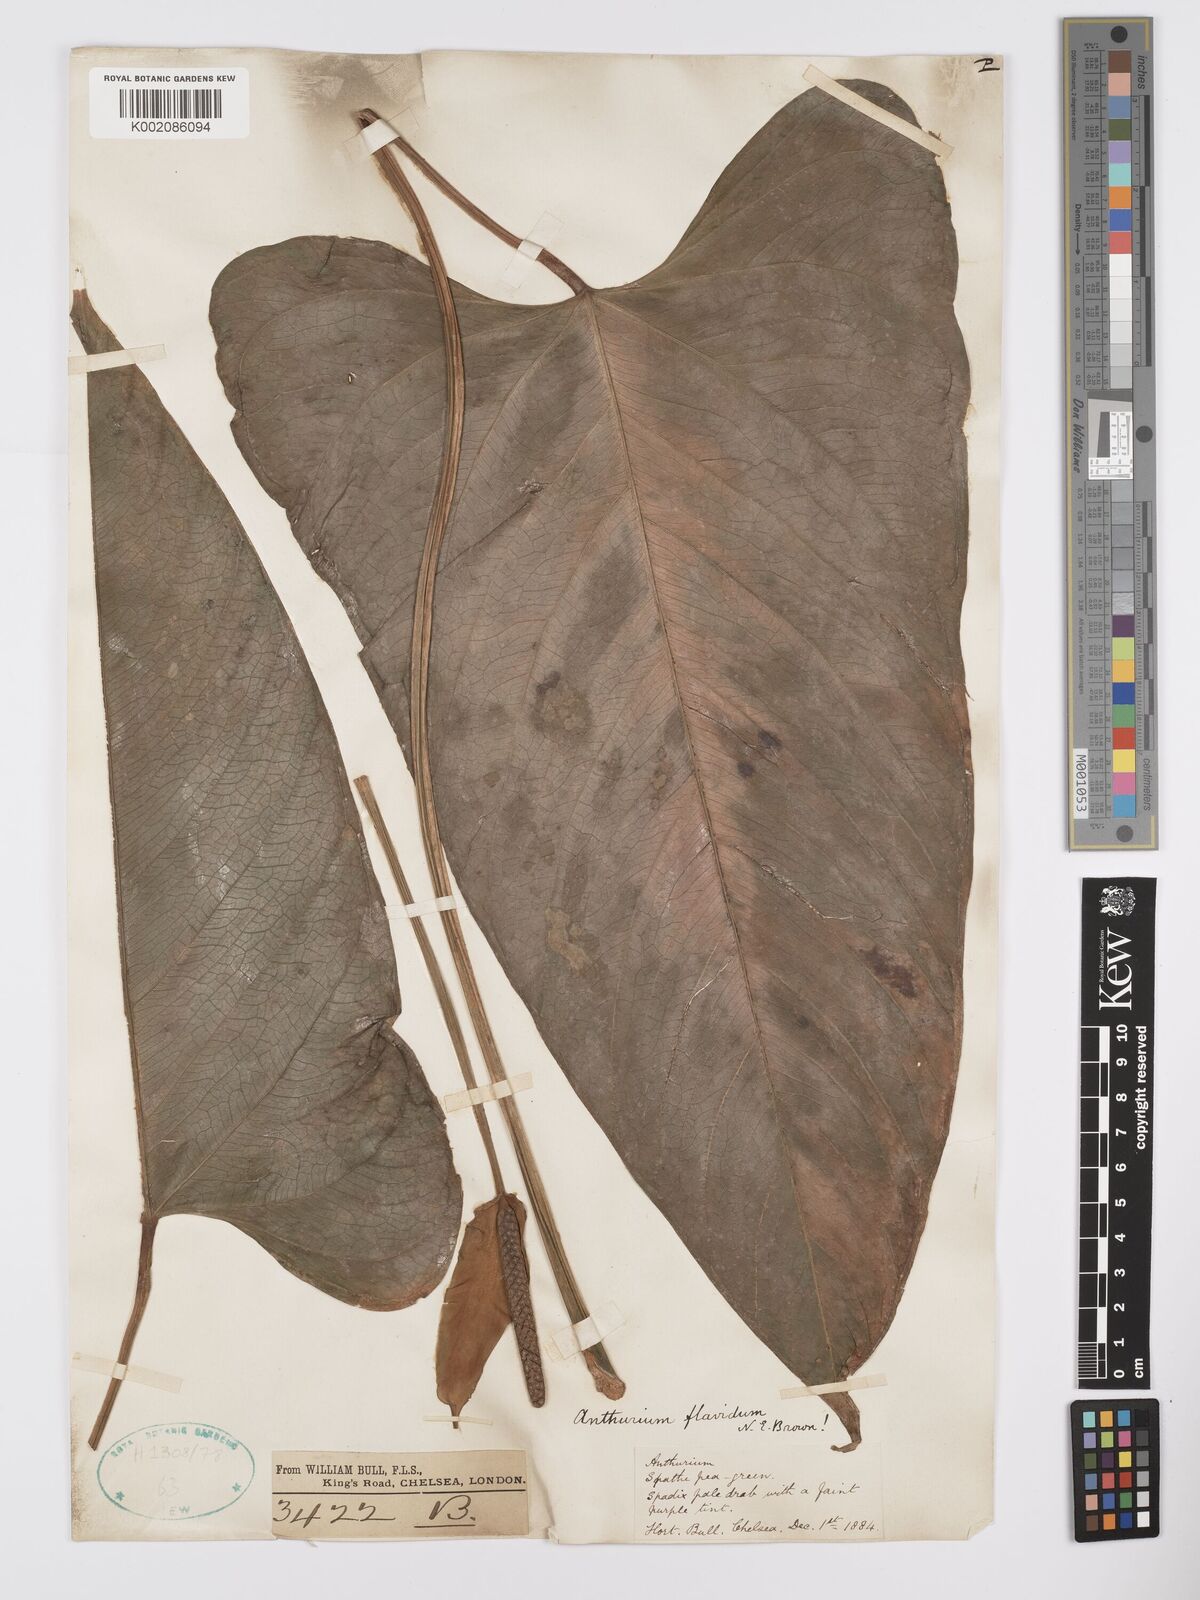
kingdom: Plantae
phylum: Tracheophyta
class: Liliopsida
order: Alismatales
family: Araceae
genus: Anthurium
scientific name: Anthurium flavidum
